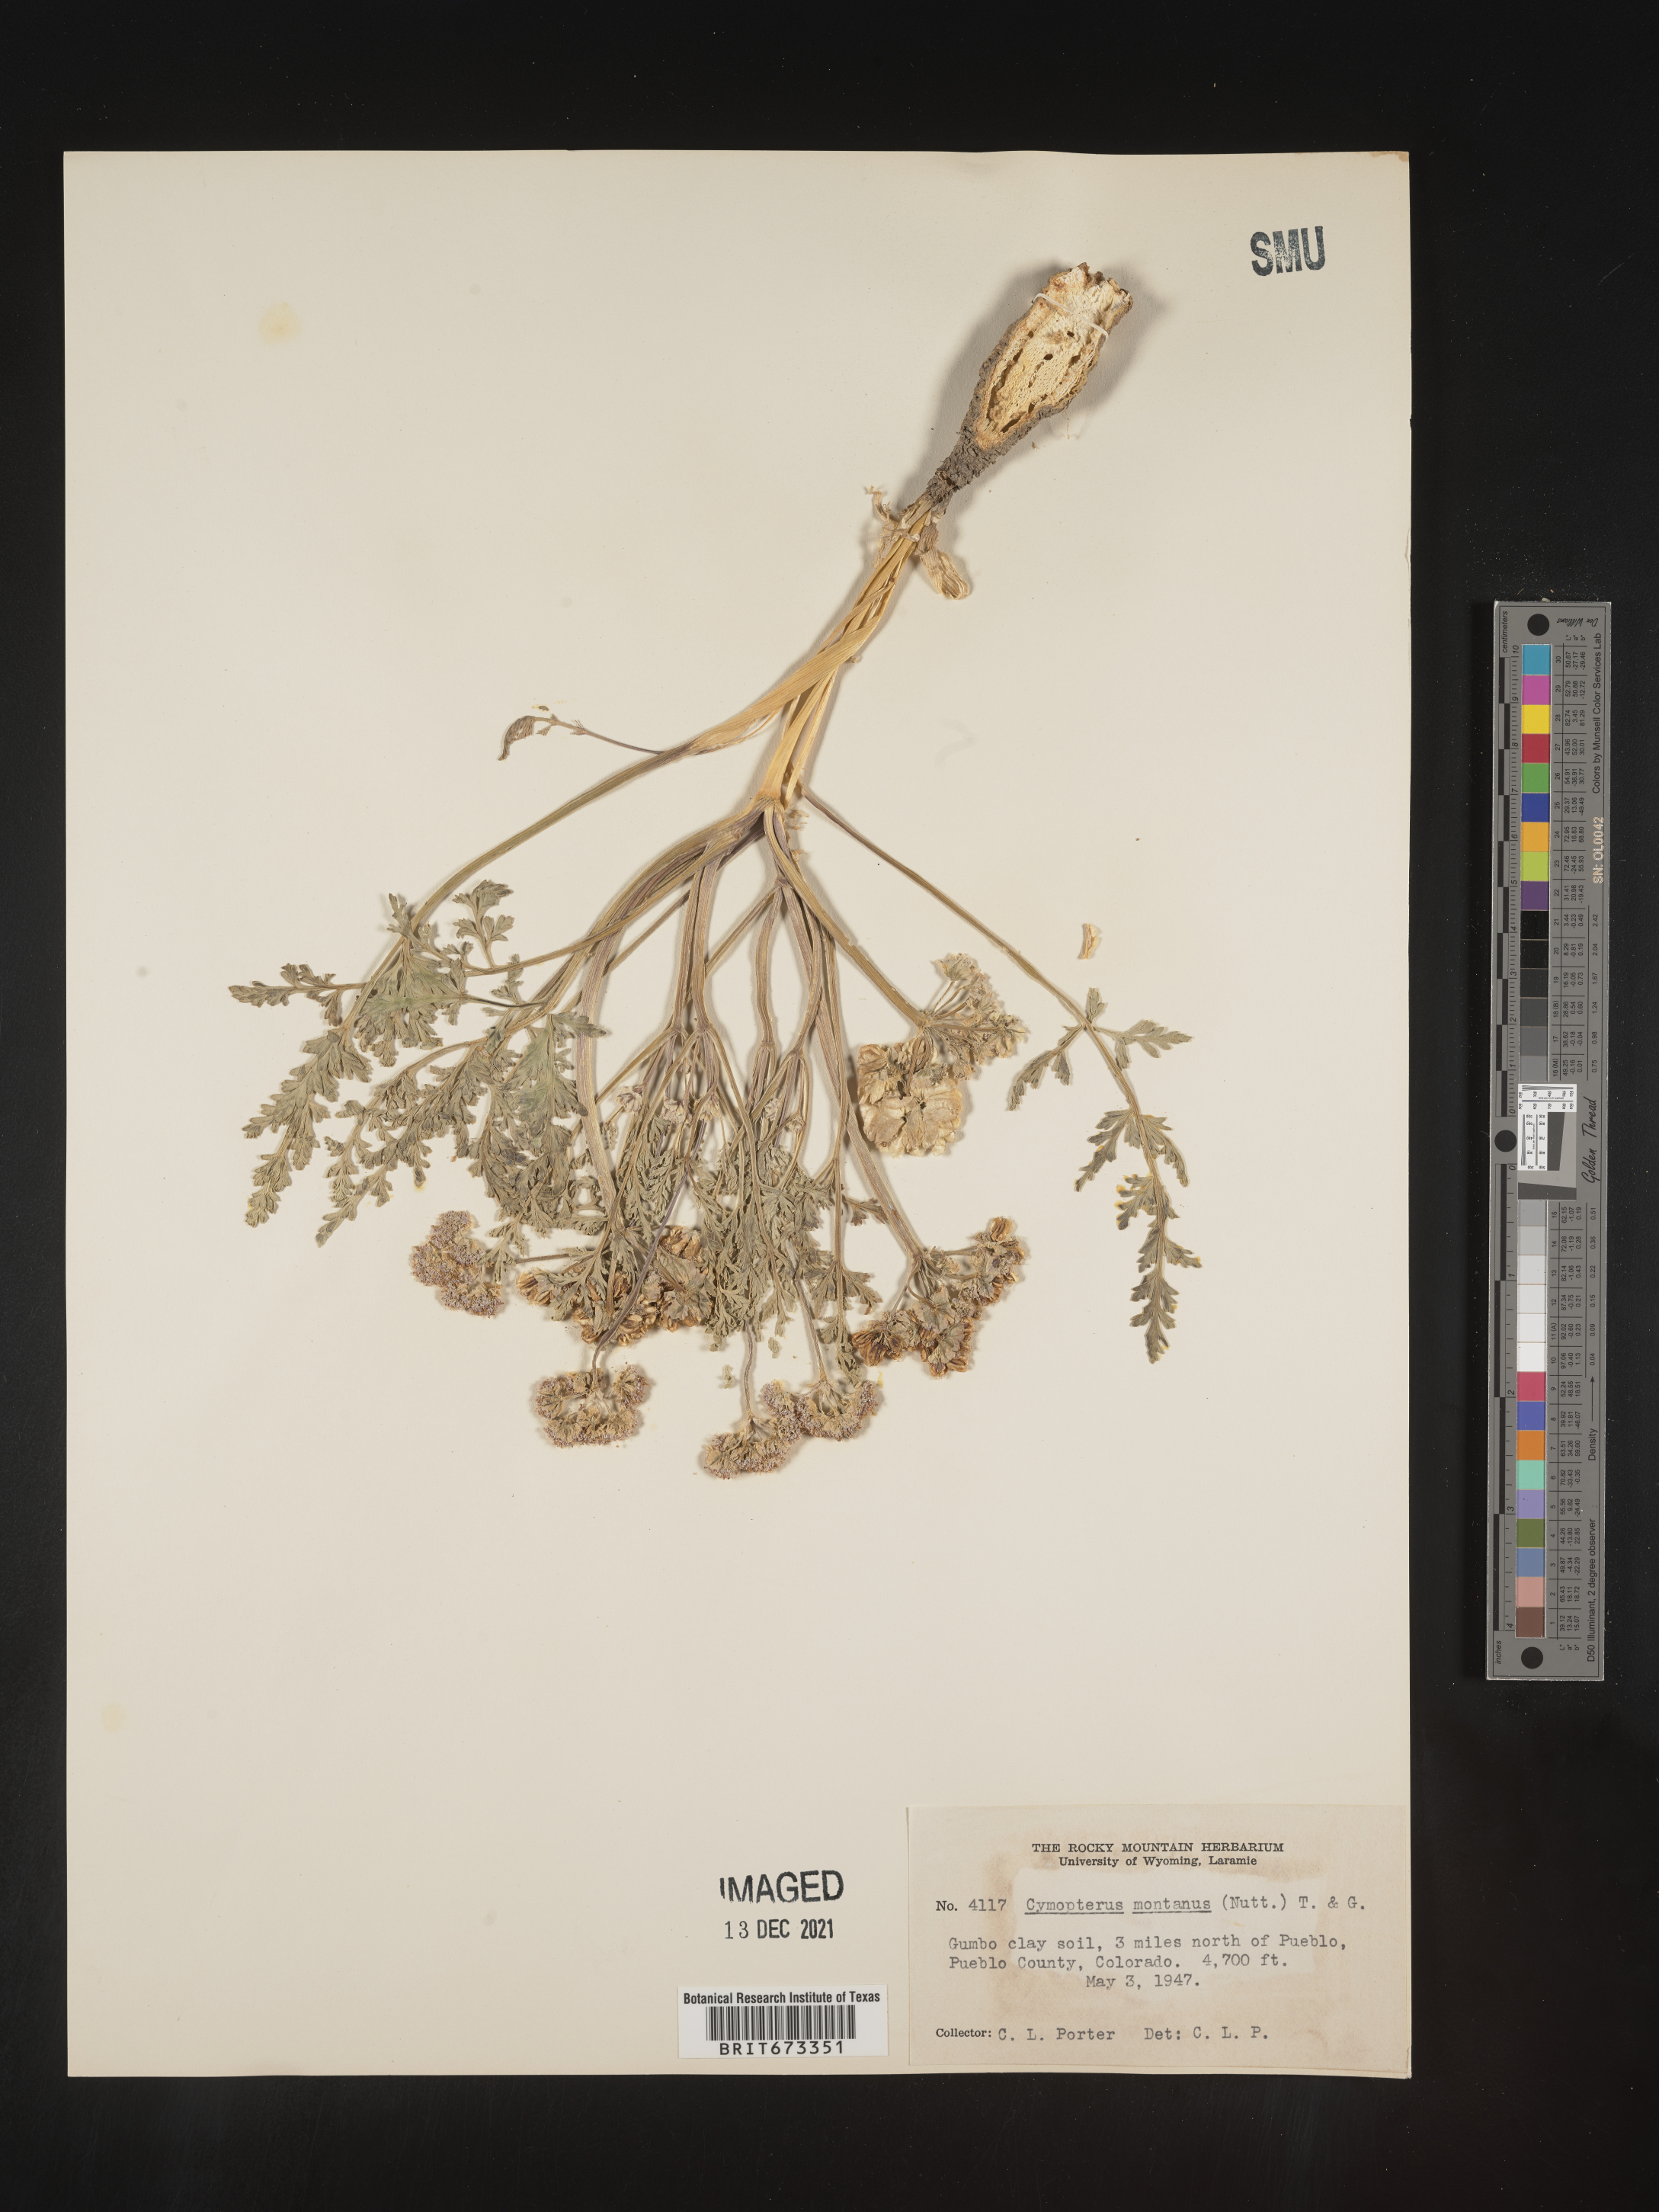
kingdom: Plantae
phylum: Tracheophyta
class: Magnoliopsida
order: Apiales
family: Apiaceae
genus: Vesper
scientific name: Vesper montanus
